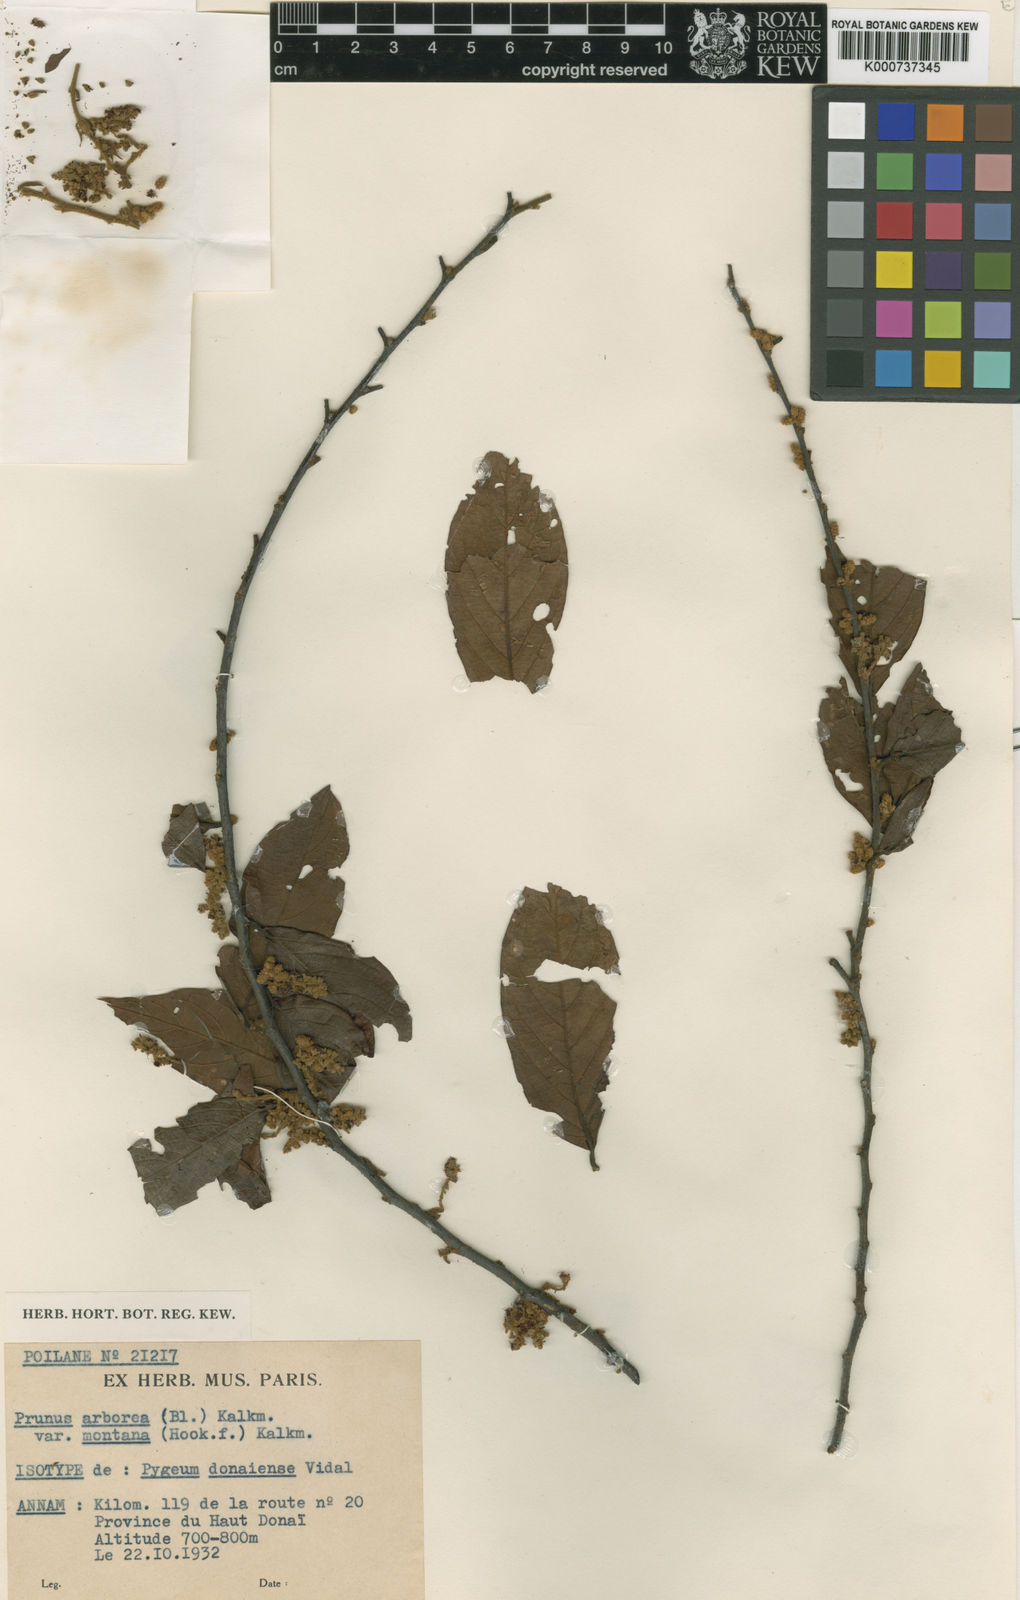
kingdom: Plantae
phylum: Tracheophyta
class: Magnoliopsida
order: Rosales
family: Rosaceae
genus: Prunus
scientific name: Prunus arborea
